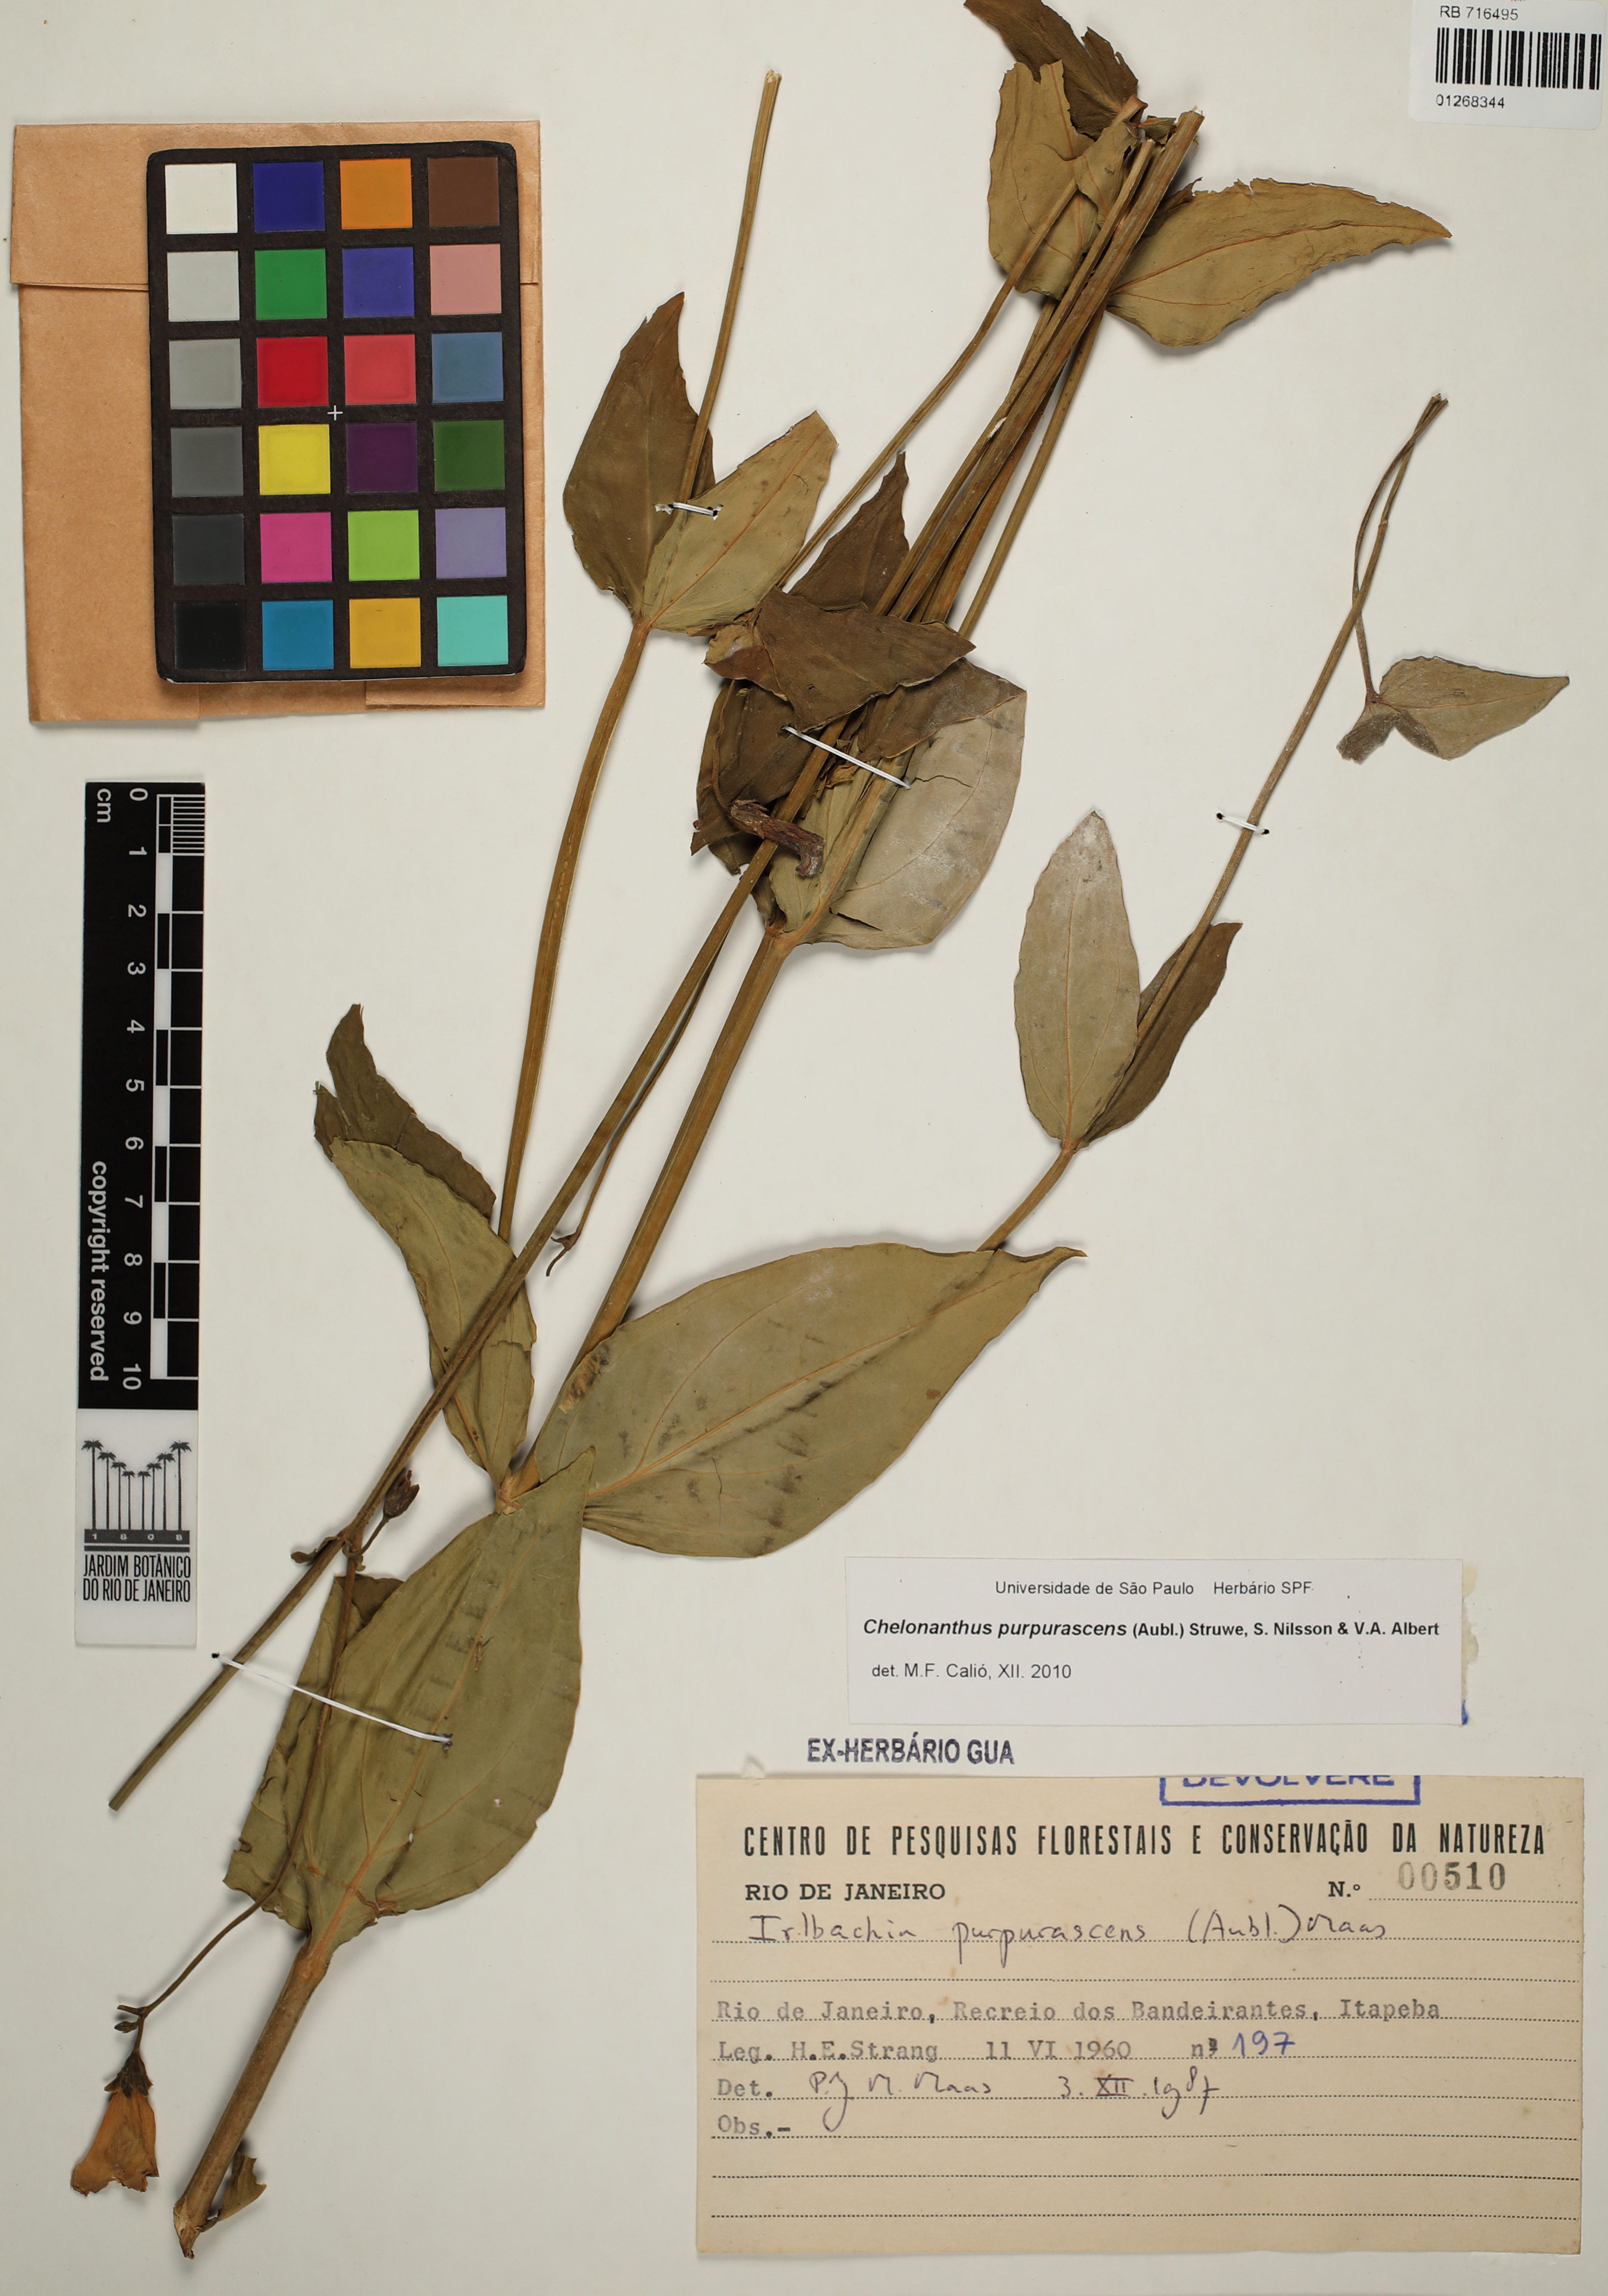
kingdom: Plantae
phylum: Tracheophyta
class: Magnoliopsida
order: Gentianales
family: Gentianaceae
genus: Chelonanthus
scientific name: Chelonanthus purpurascens
